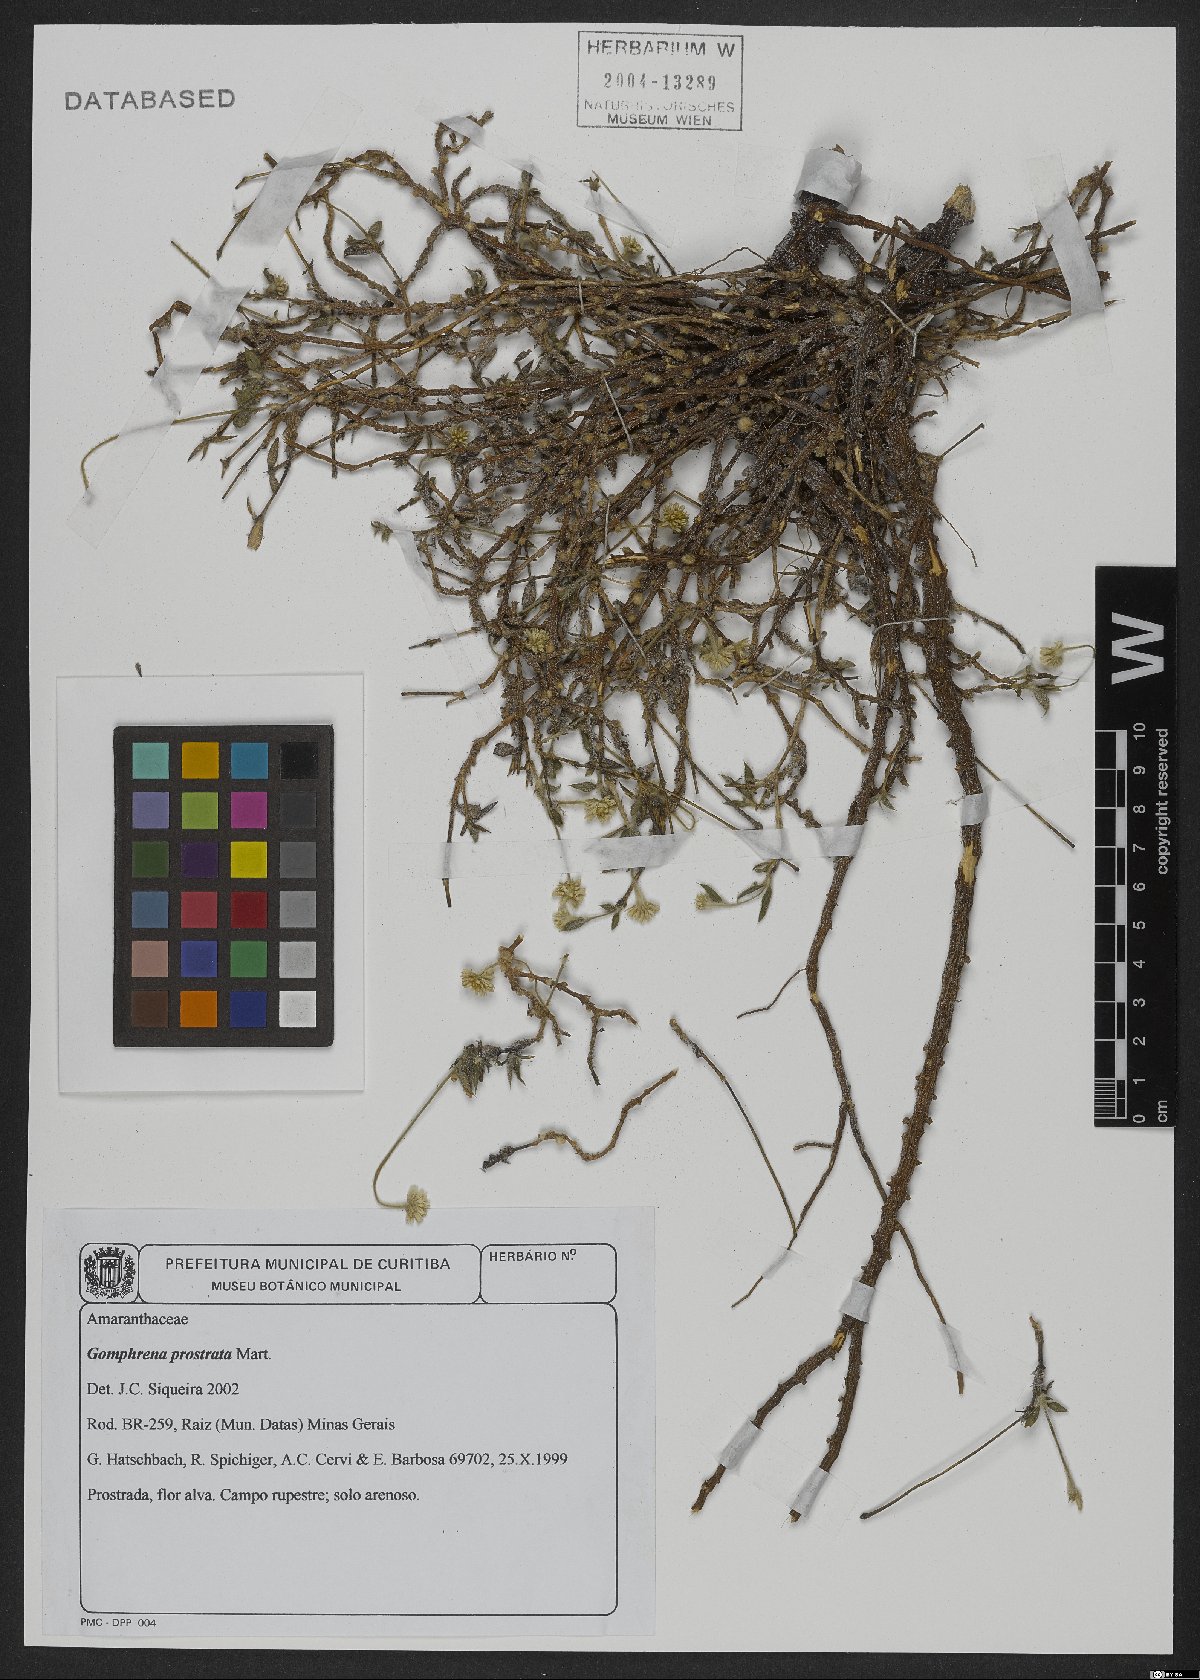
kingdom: Plantae
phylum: Tracheophyta
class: Magnoliopsida
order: Caryophyllales
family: Amaranthaceae
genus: Gomphrena
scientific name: Gomphrena prostrata
